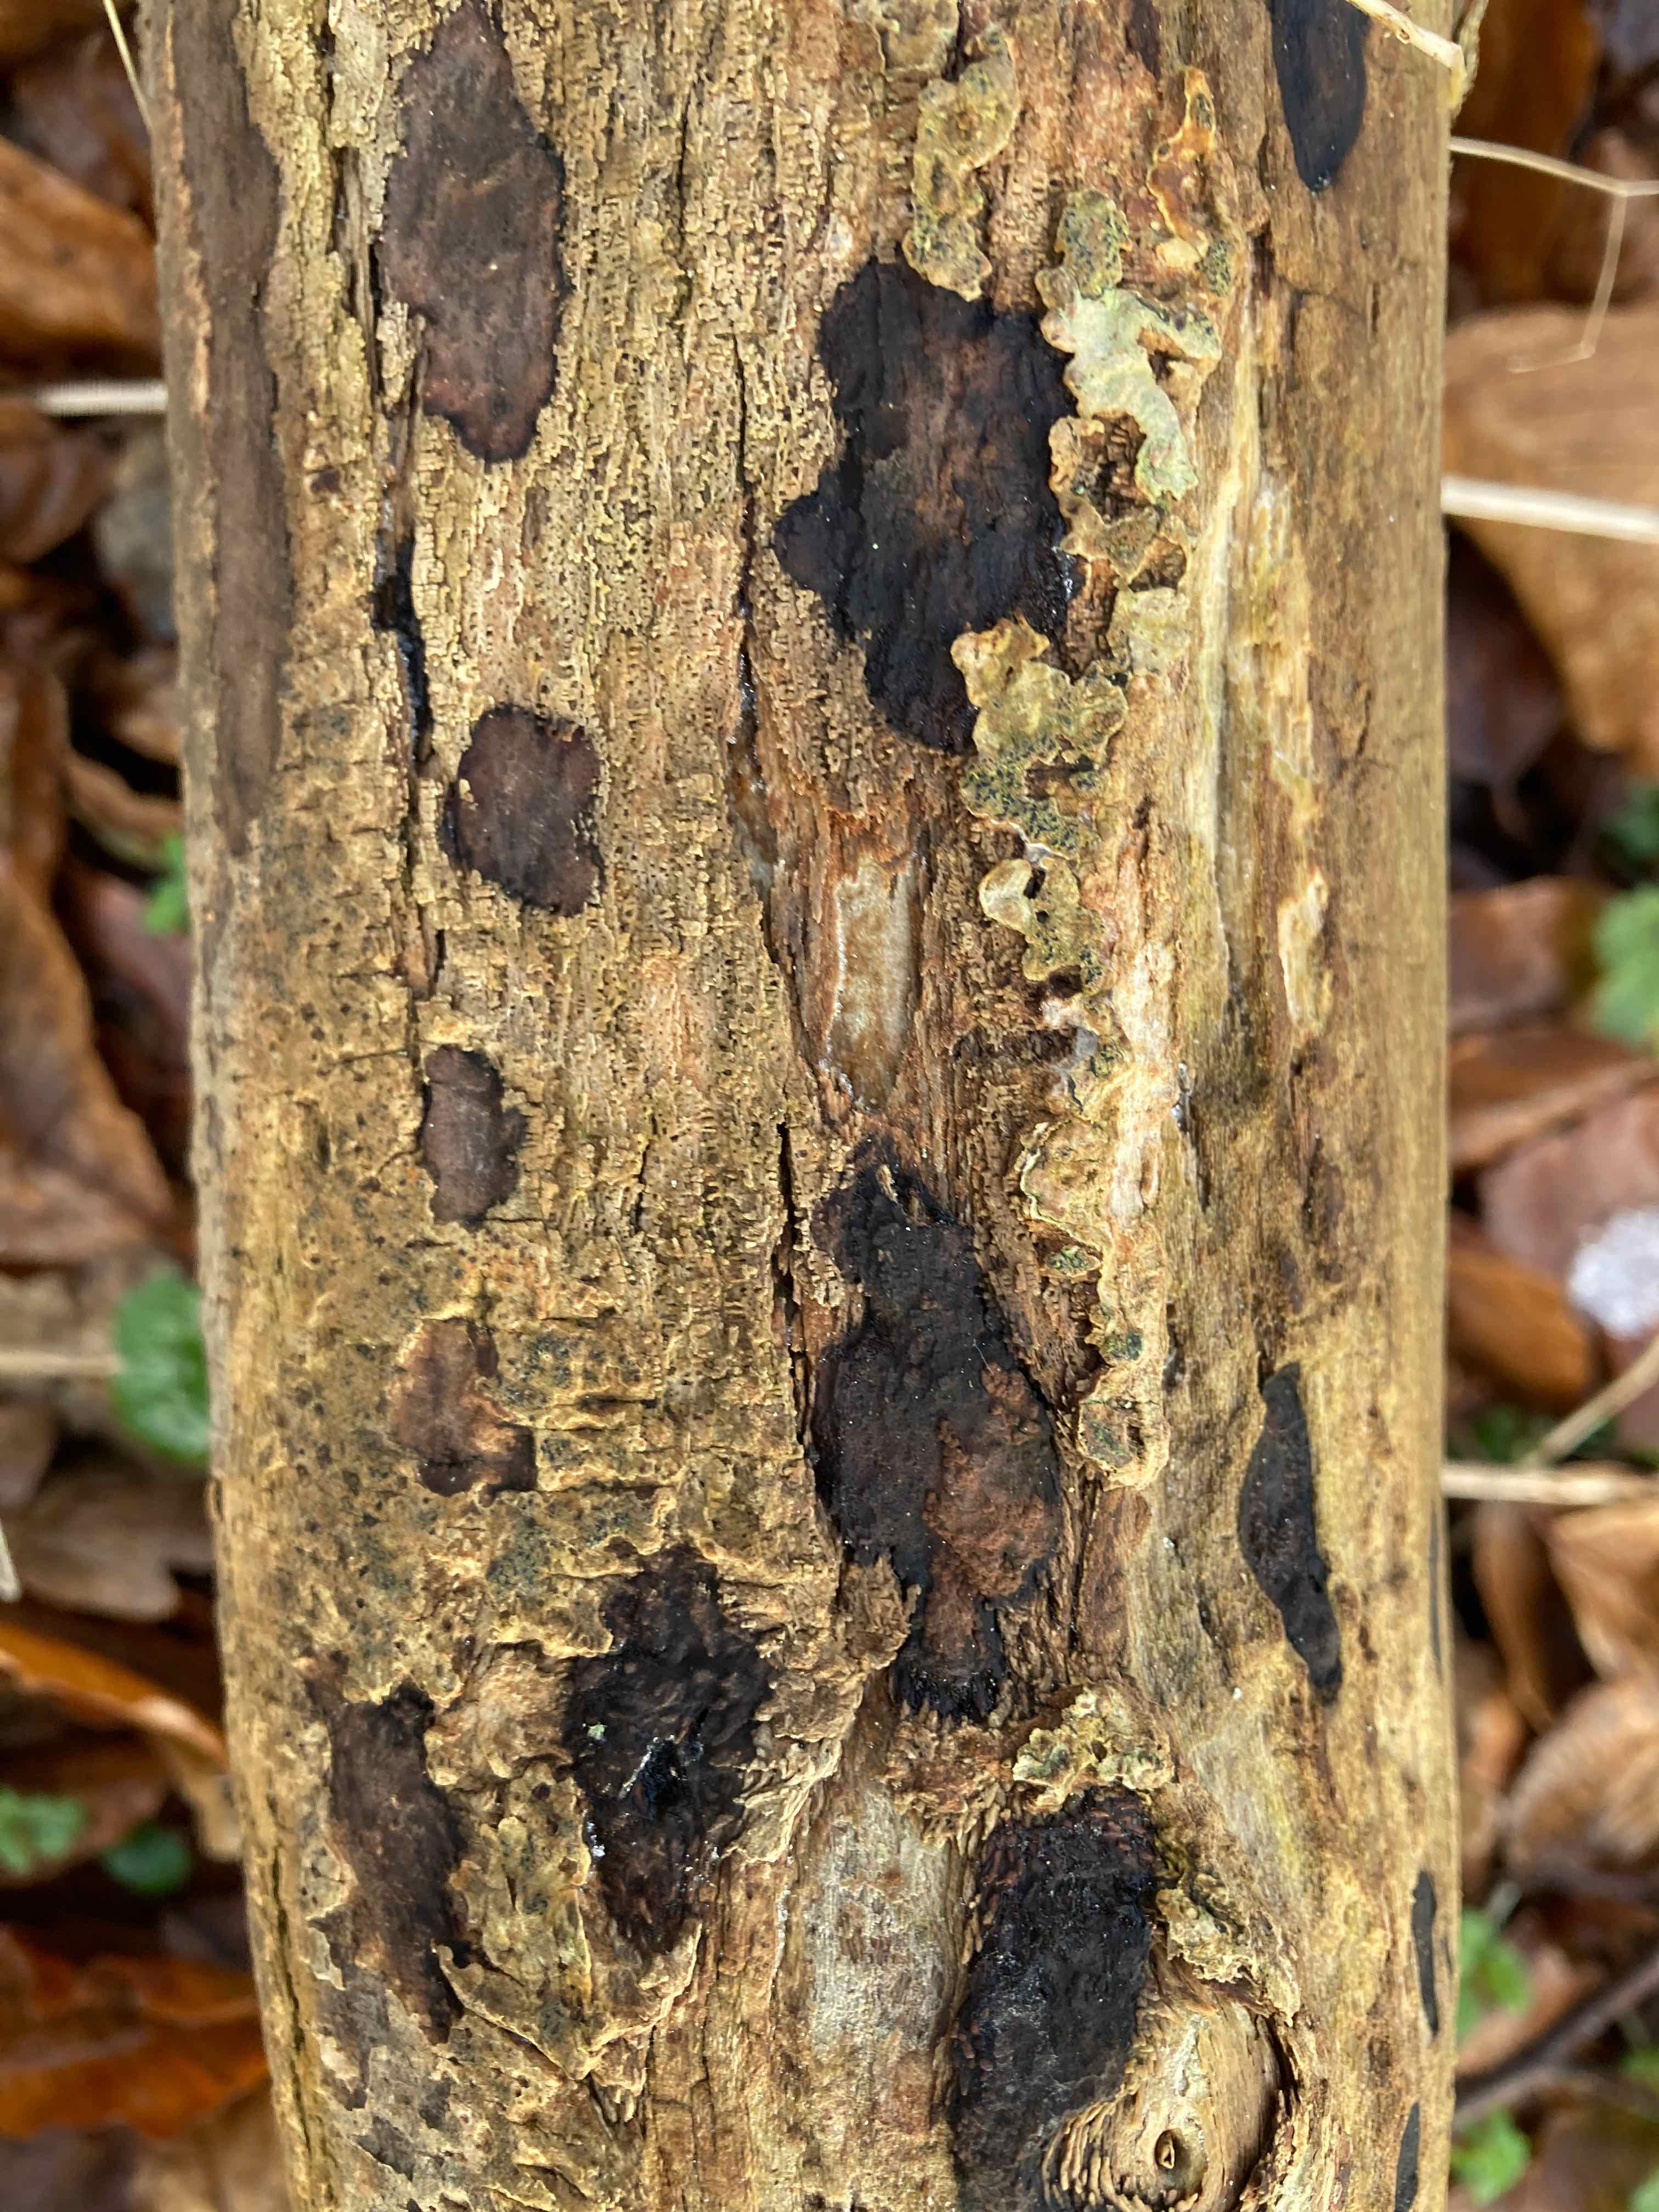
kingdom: Fungi
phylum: Ascomycota
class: Sordariomycetes
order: Xylariales
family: Hypoxylaceae
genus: Hypoxylon
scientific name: Hypoxylon petriniae
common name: nedsænket kulbær
